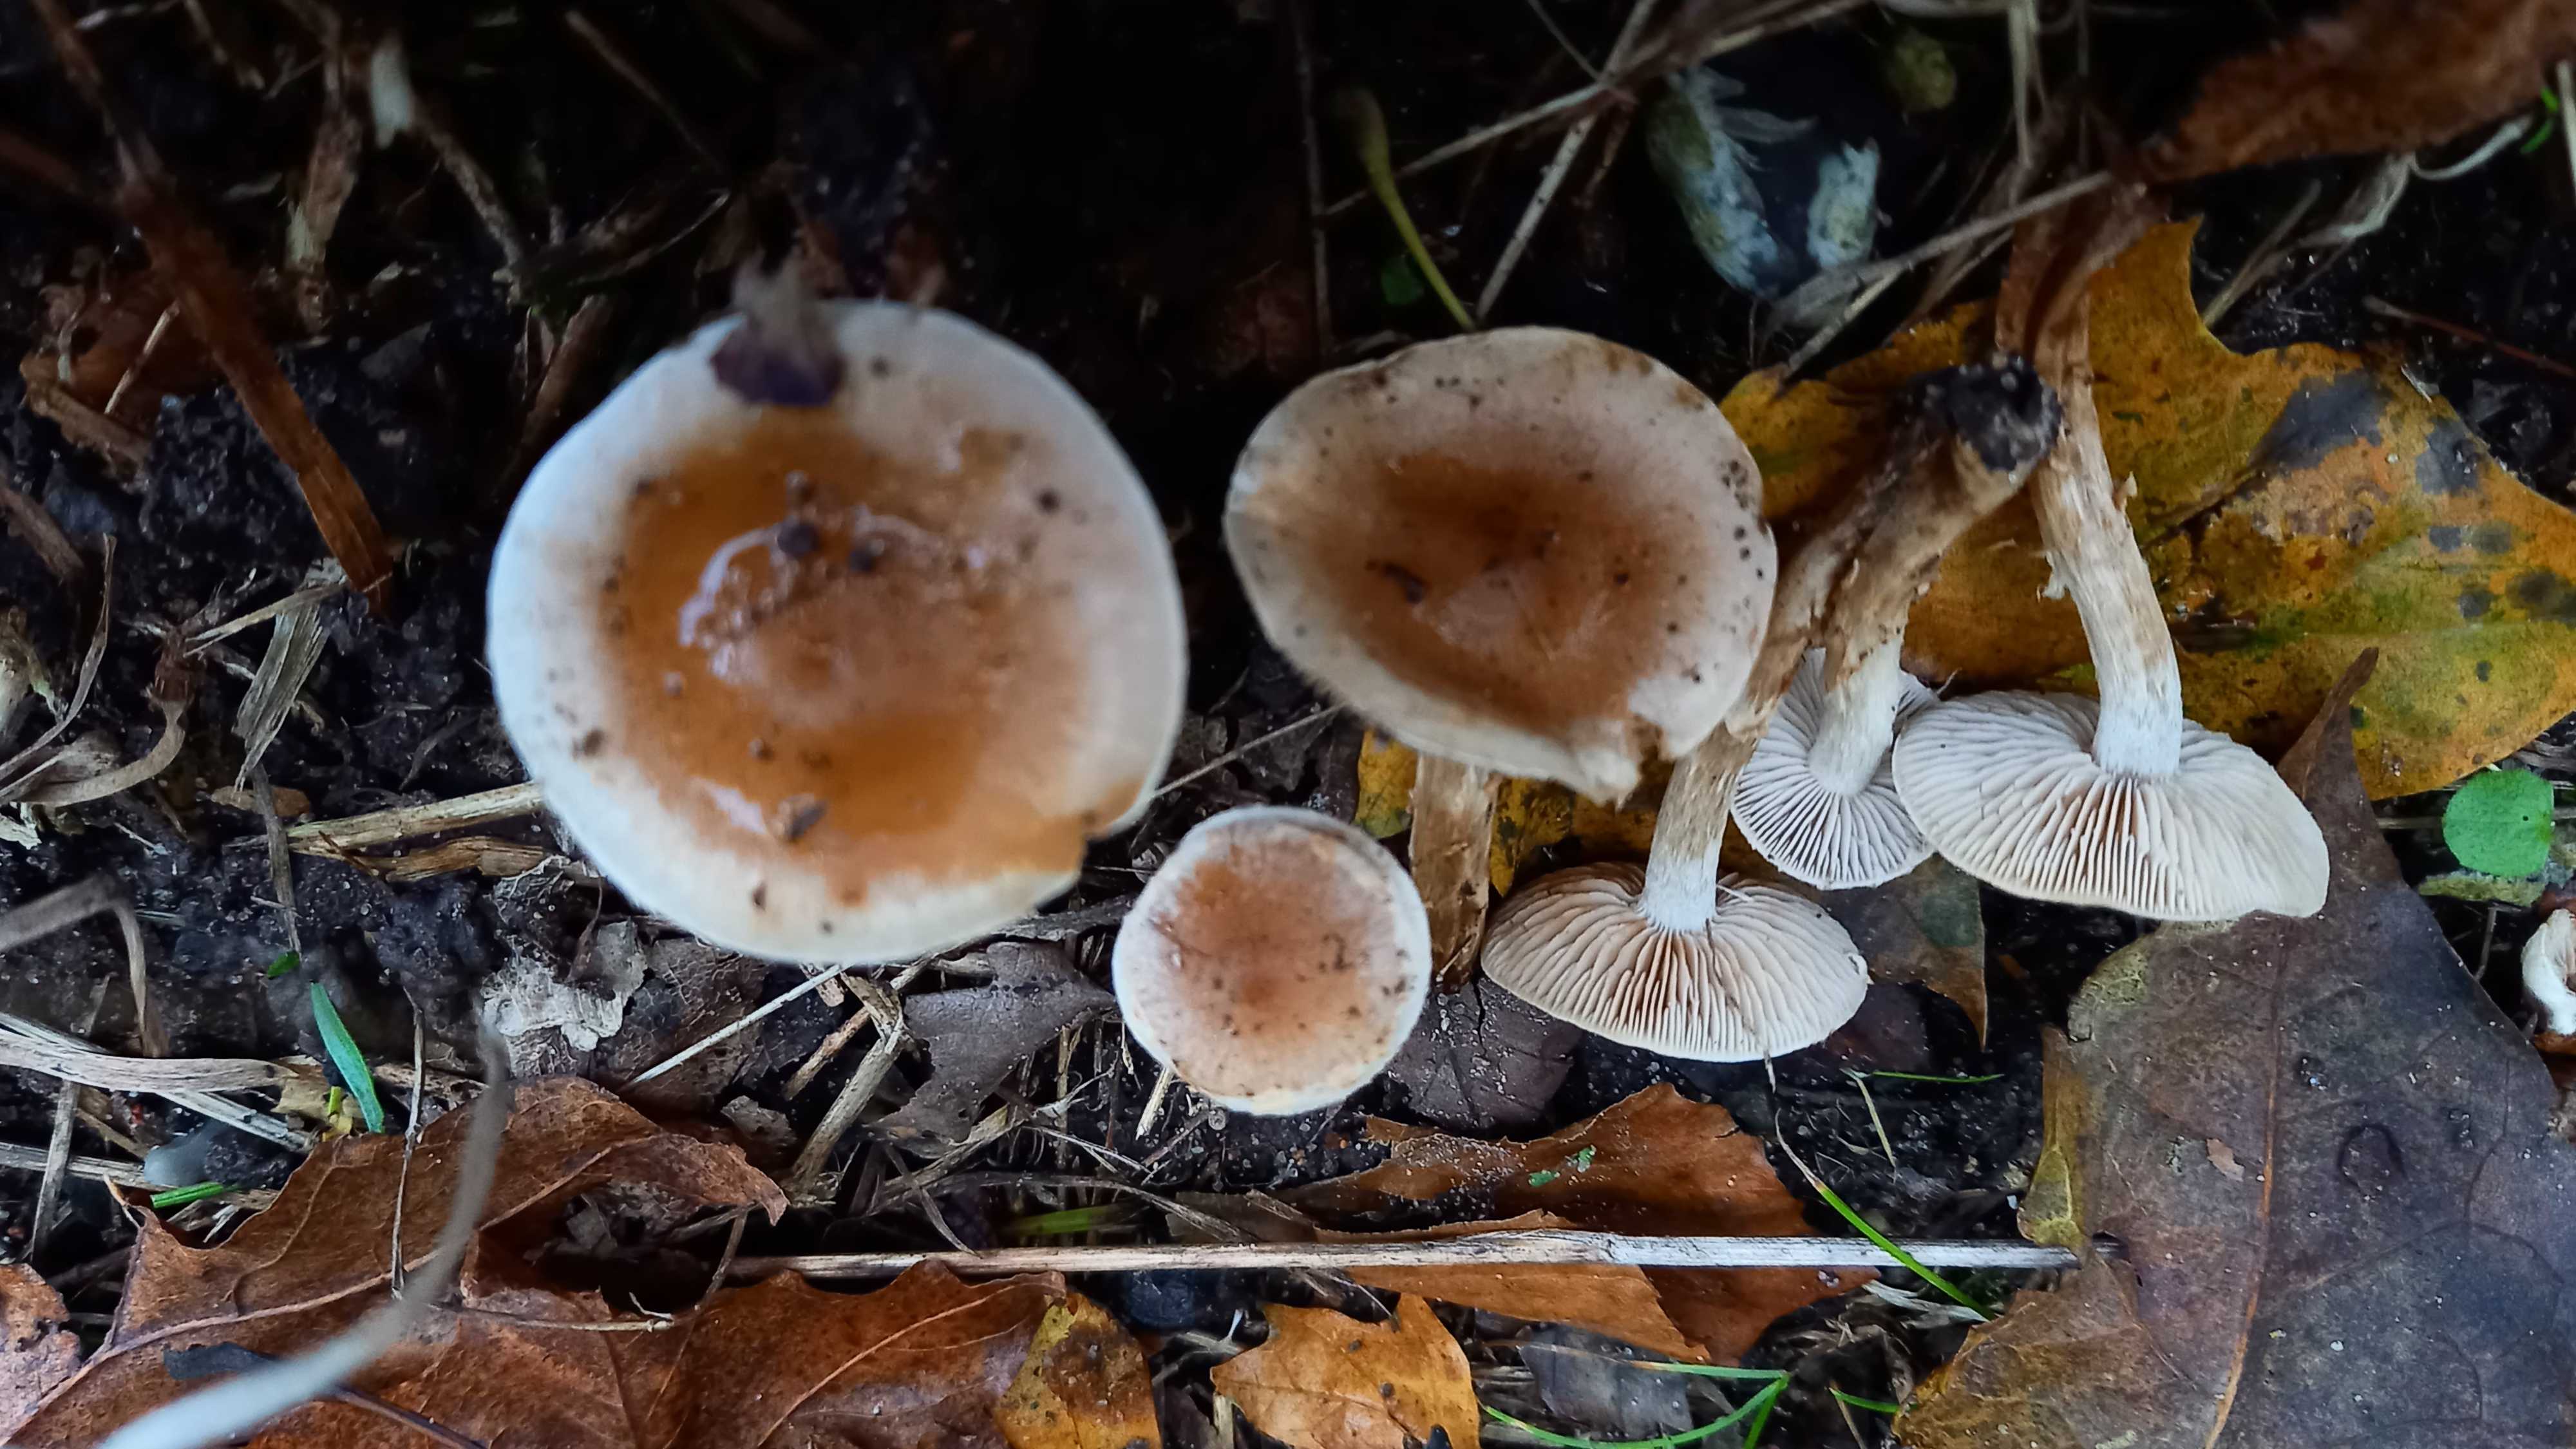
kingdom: Fungi
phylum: Basidiomycota
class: Agaricomycetes
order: Agaricales
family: Hymenogastraceae
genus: Hebeloma
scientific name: Hebeloma mesophaeum
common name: lerbrun tåreblad
